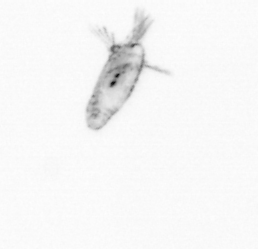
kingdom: Animalia
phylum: Arthropoda
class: Copepoda
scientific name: Copepoda
